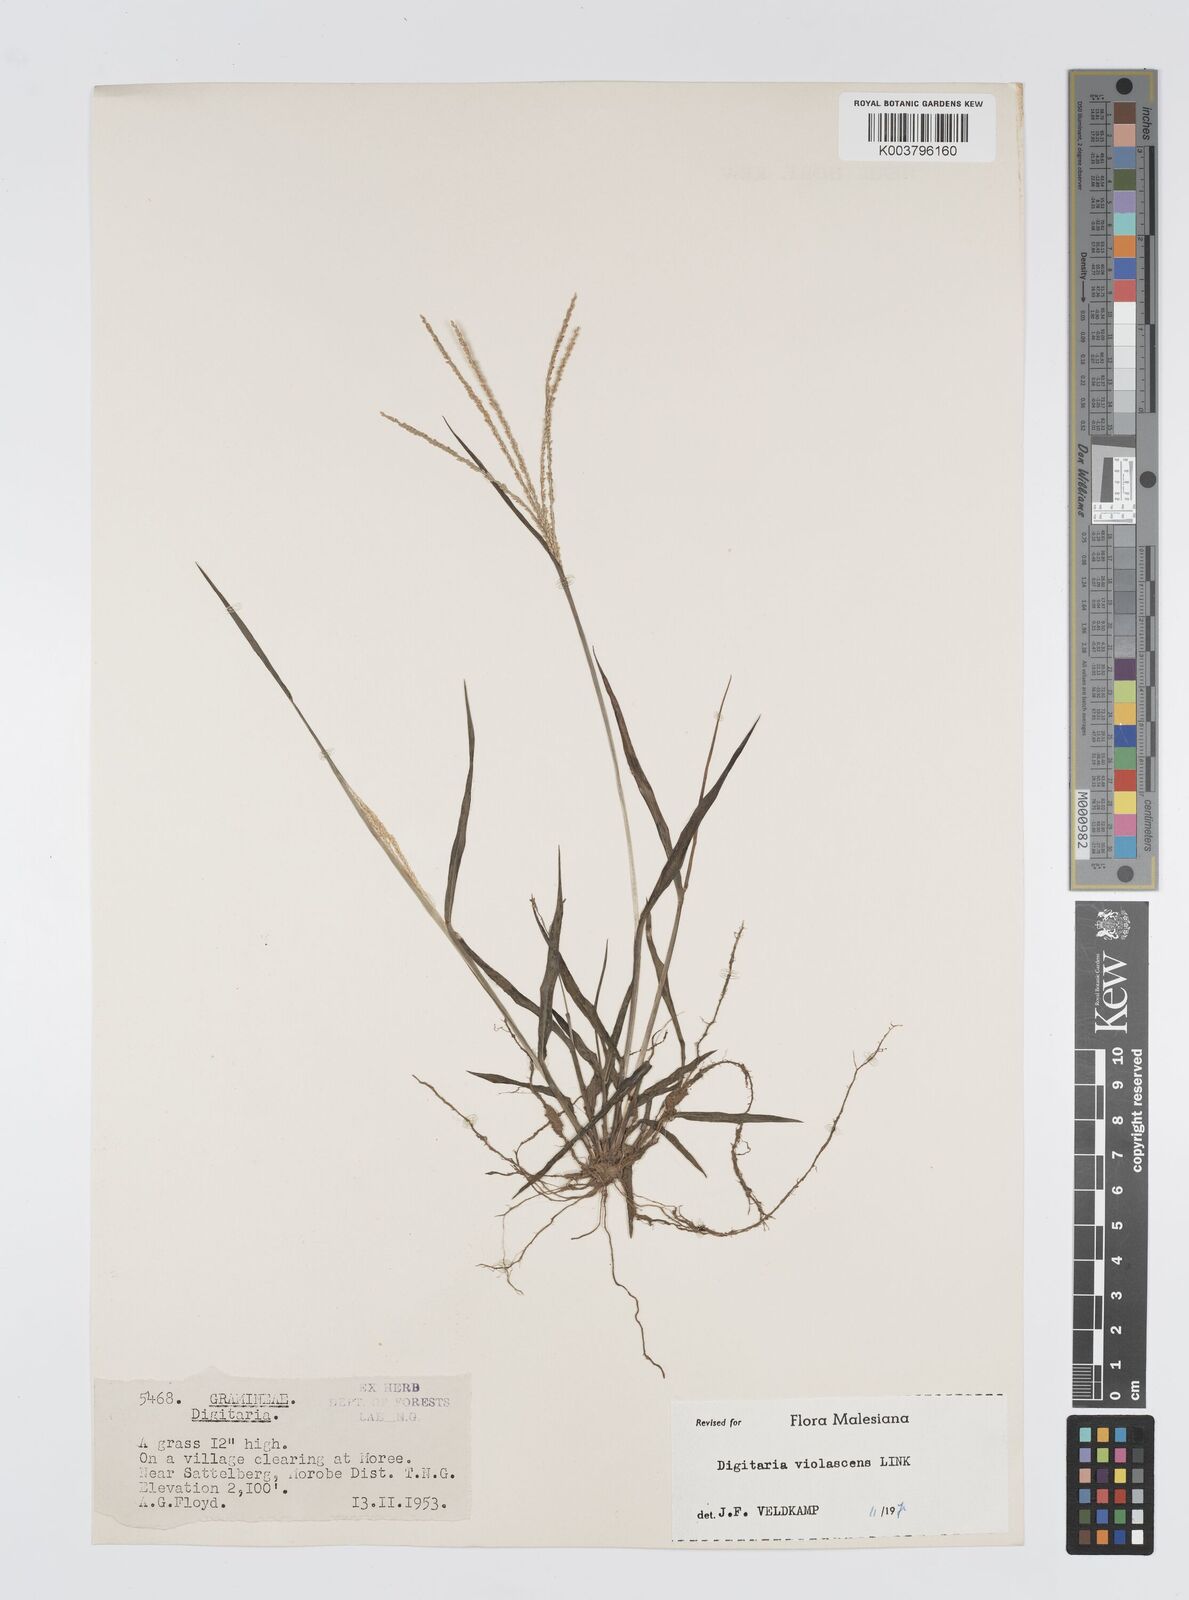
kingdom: Plantae
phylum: Tracheophyta
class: Liliopsida
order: Poales
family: Poaceae
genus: Digitaria
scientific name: Digitaria violascens
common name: Violet crabgrass
